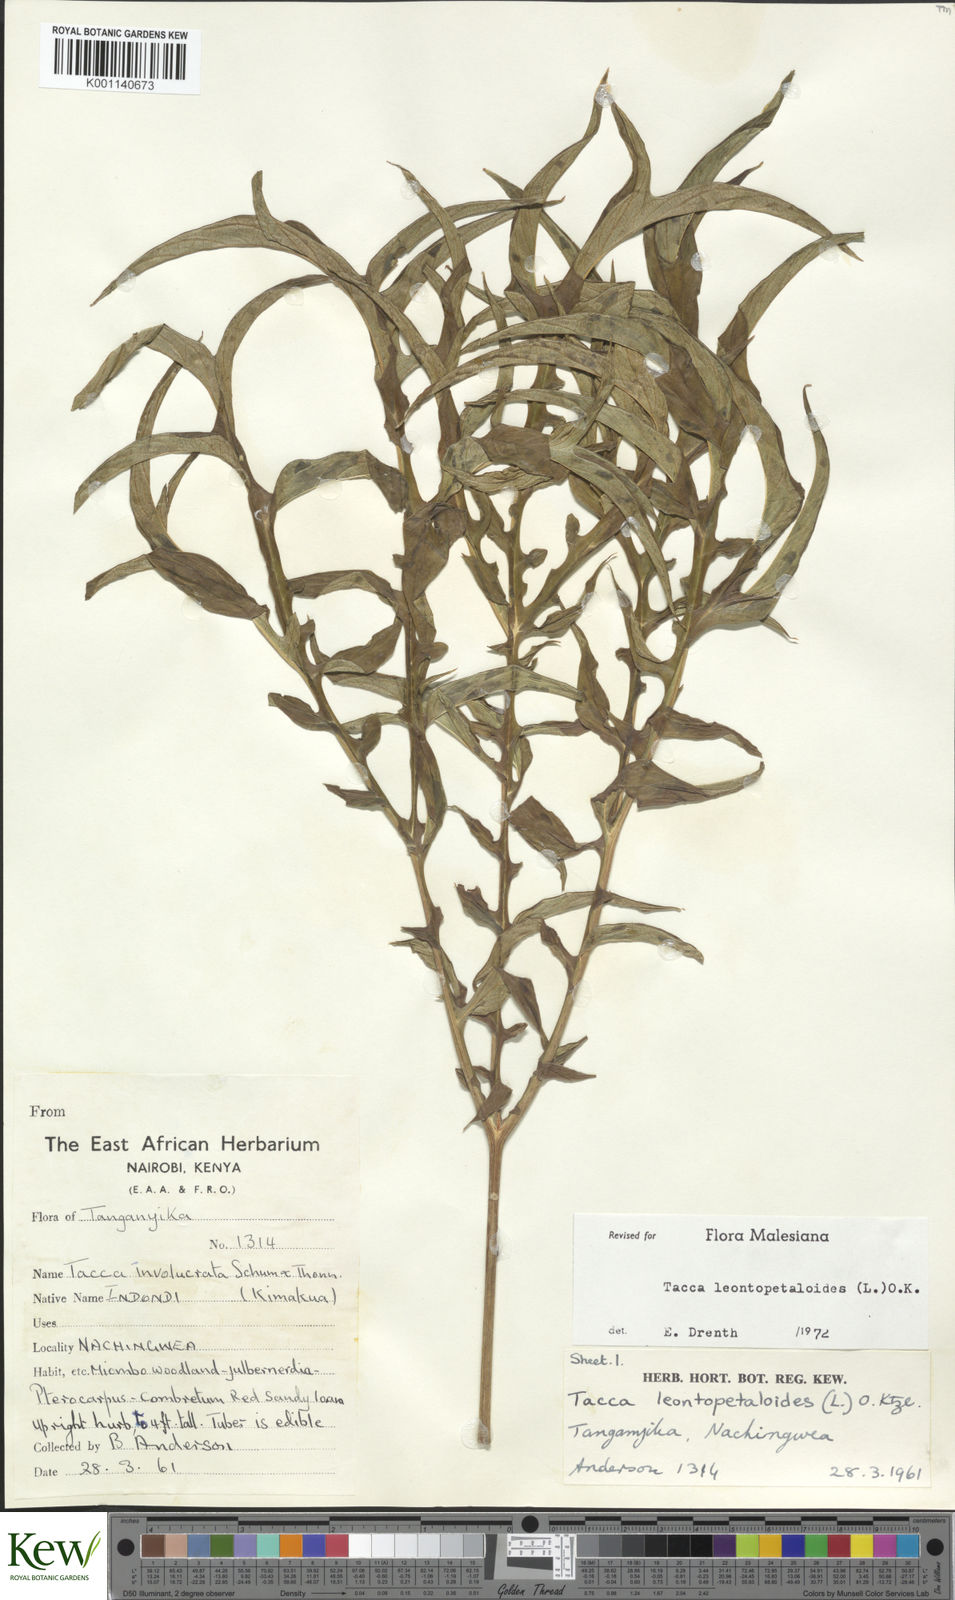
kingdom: Plantae
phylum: Tracheophyta
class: Liliopsida
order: Dioscoreales
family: Dioscoreaceae
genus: Tacca
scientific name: Tacca leontopetaloides
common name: Arrowroot
